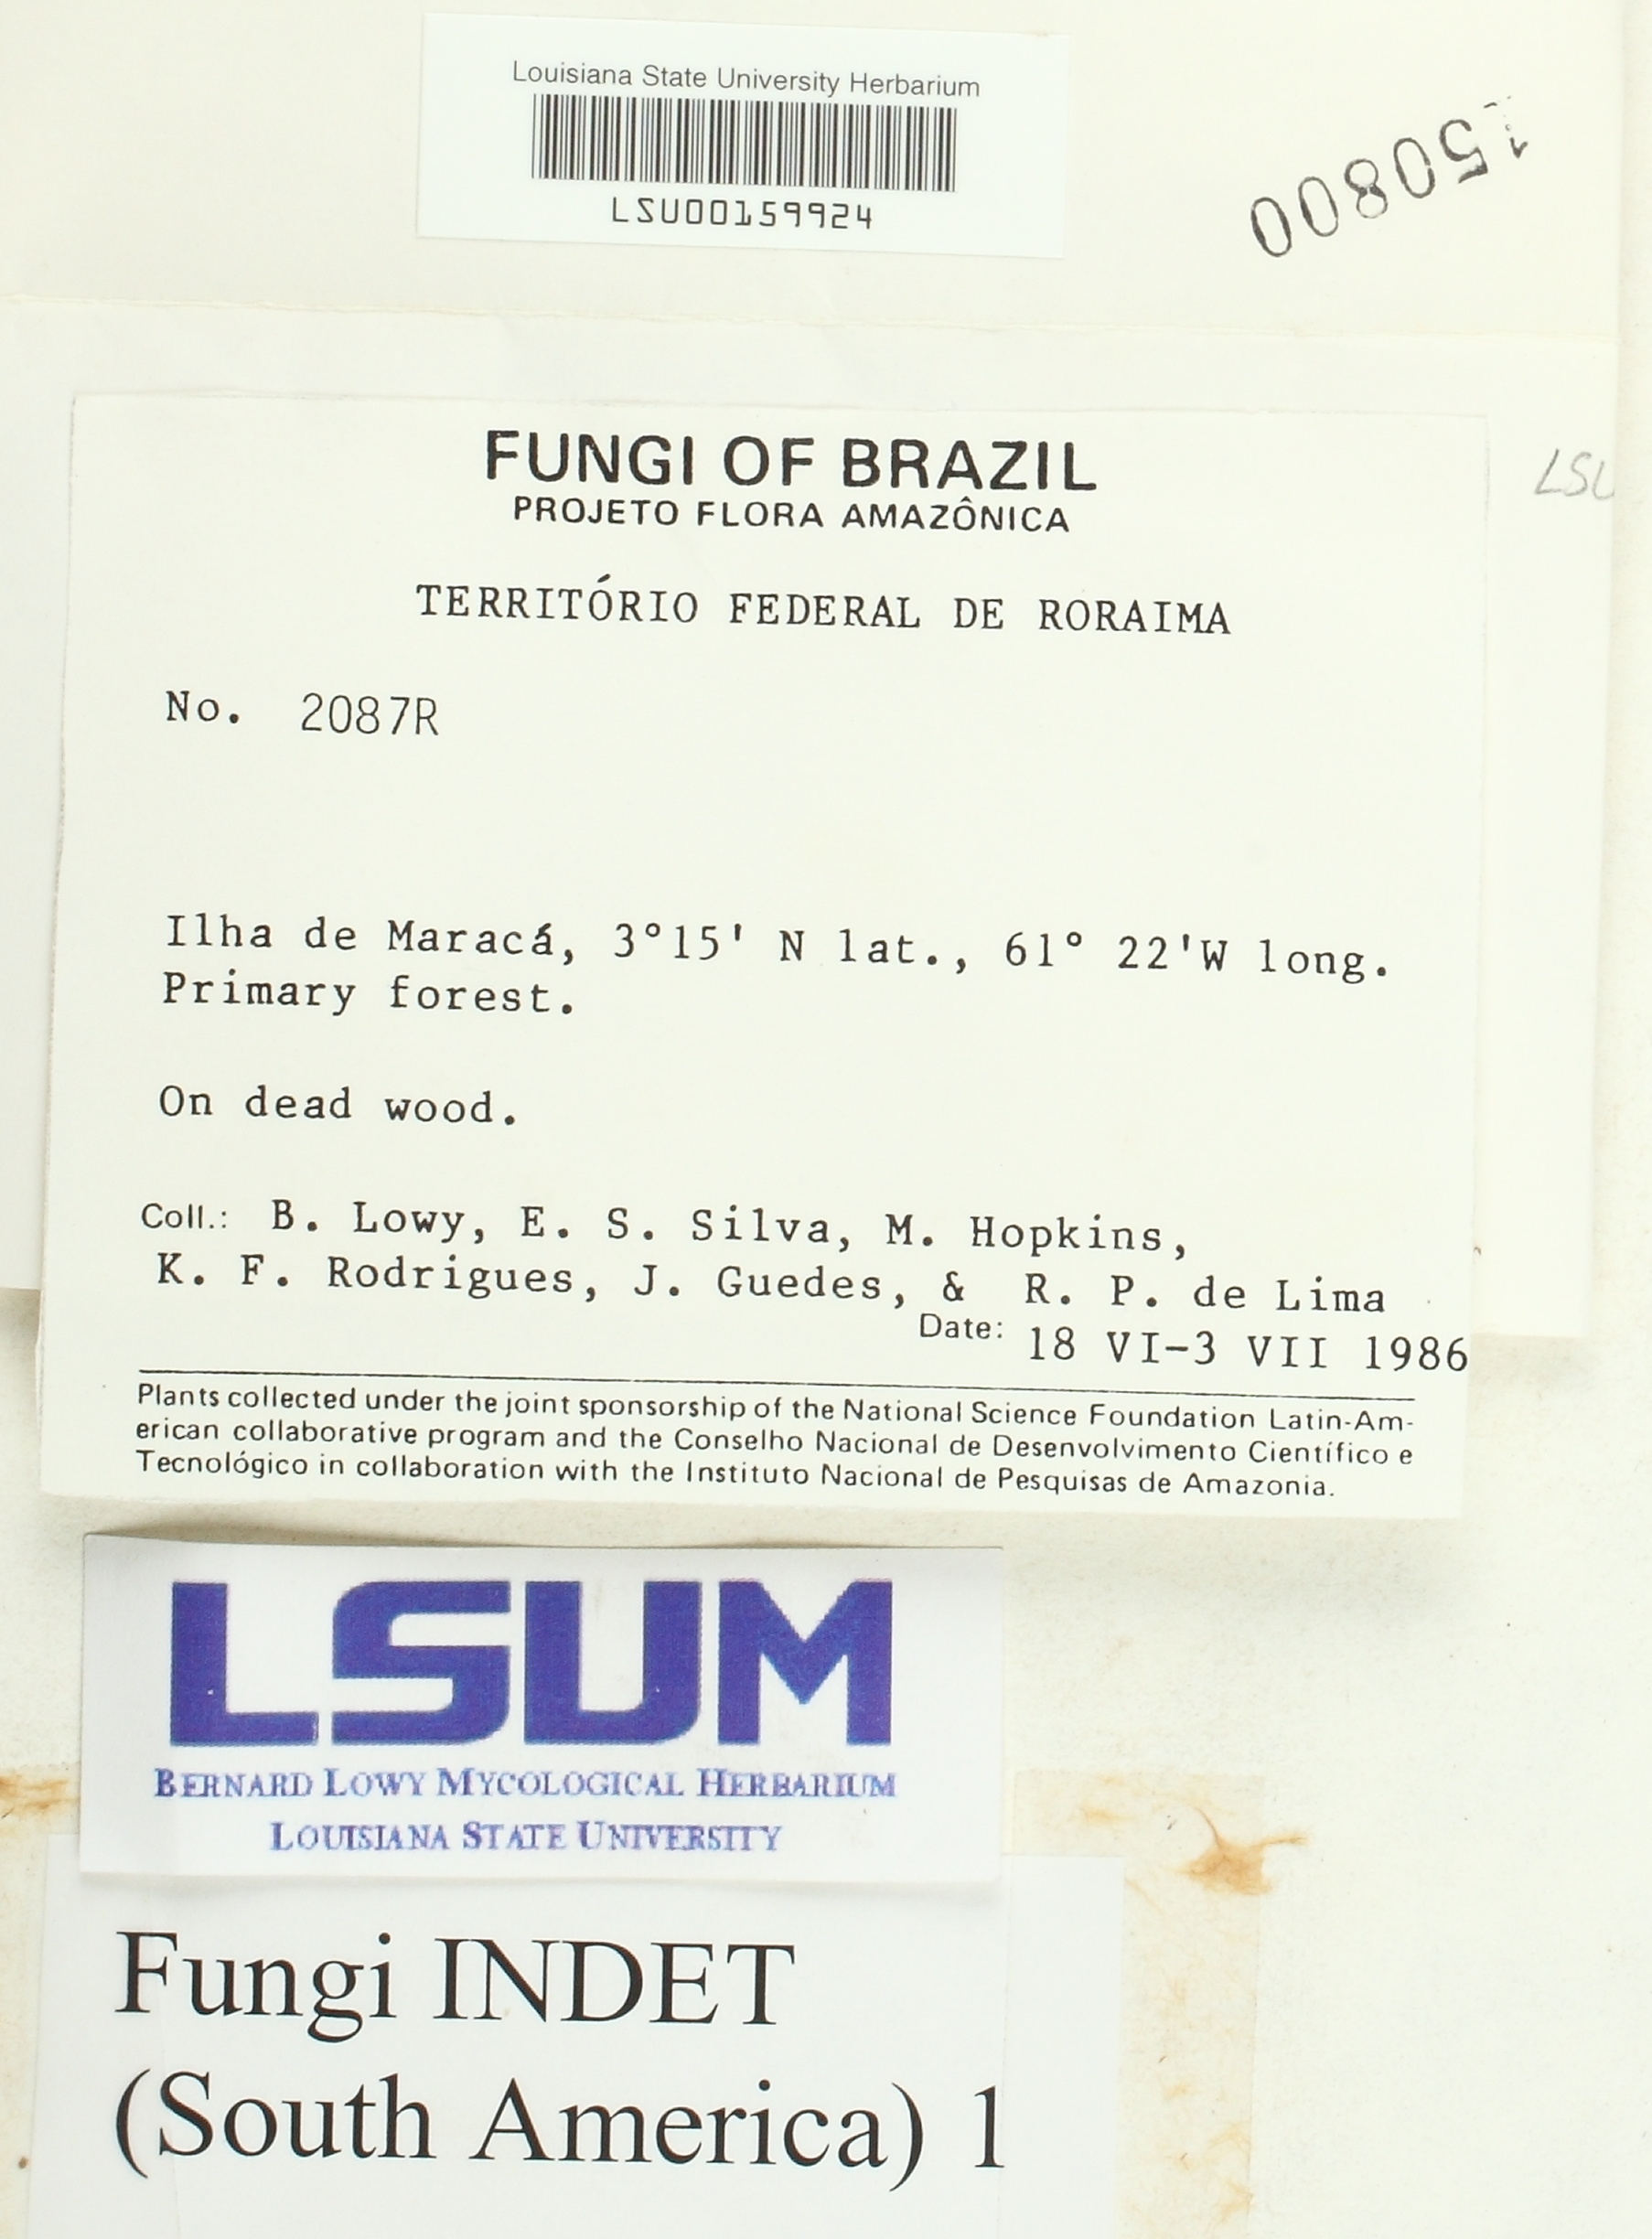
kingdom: Fungi
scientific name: Fungi
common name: Fungi
